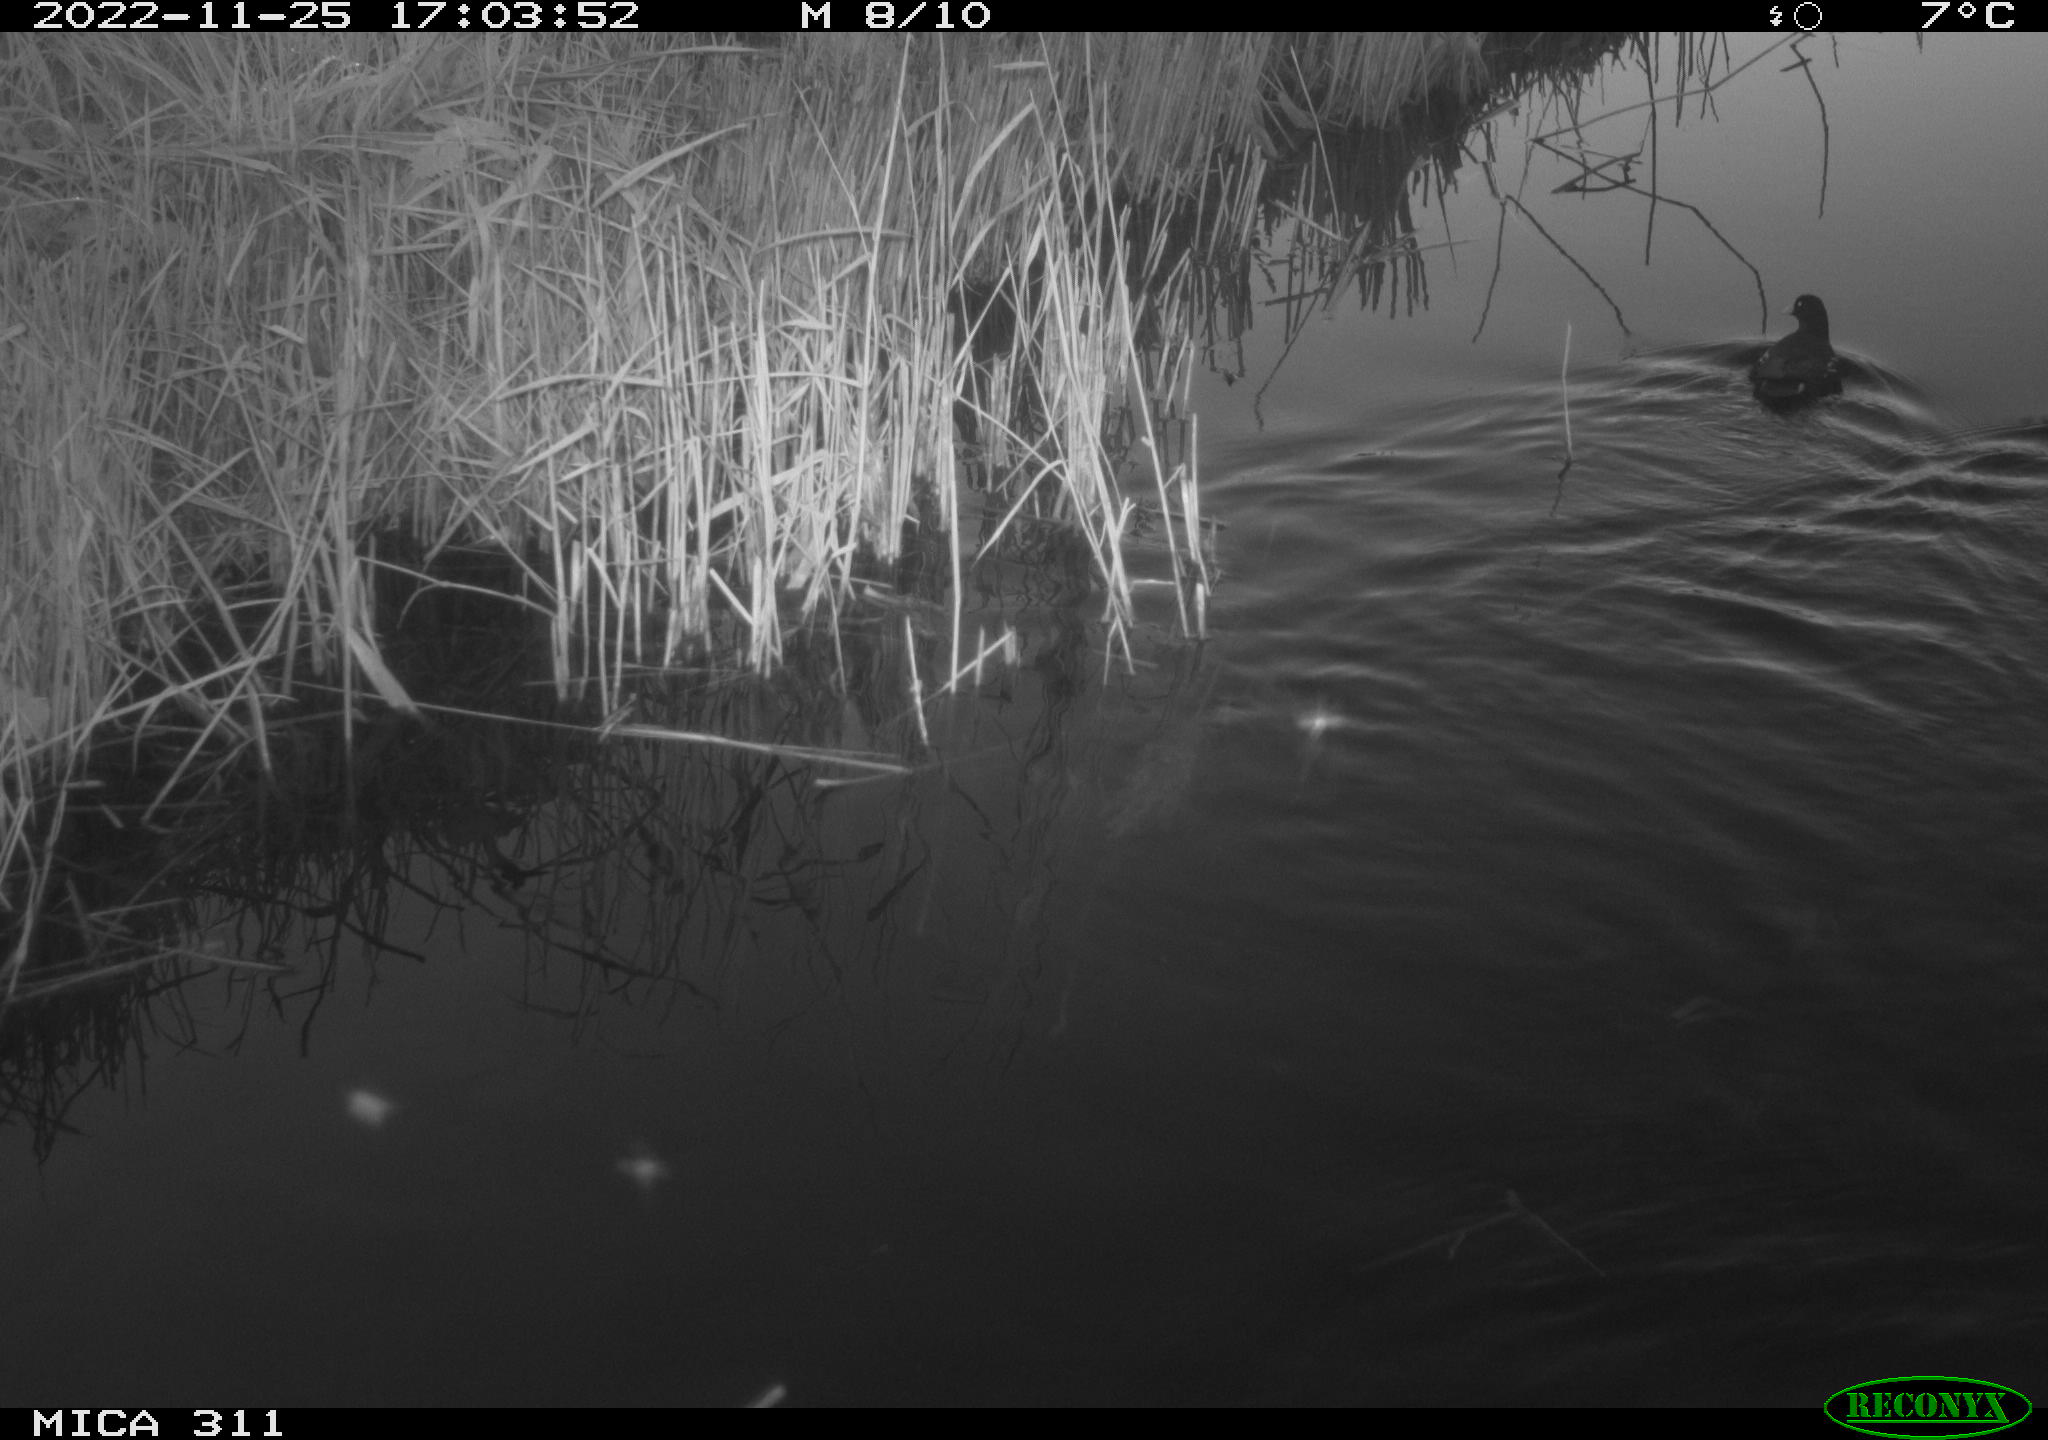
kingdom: Animalia
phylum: Chordata
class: Aves
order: Gruiformes
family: Rallidae
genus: Gallinula
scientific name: Gallinula chloropus
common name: Common moorhen
